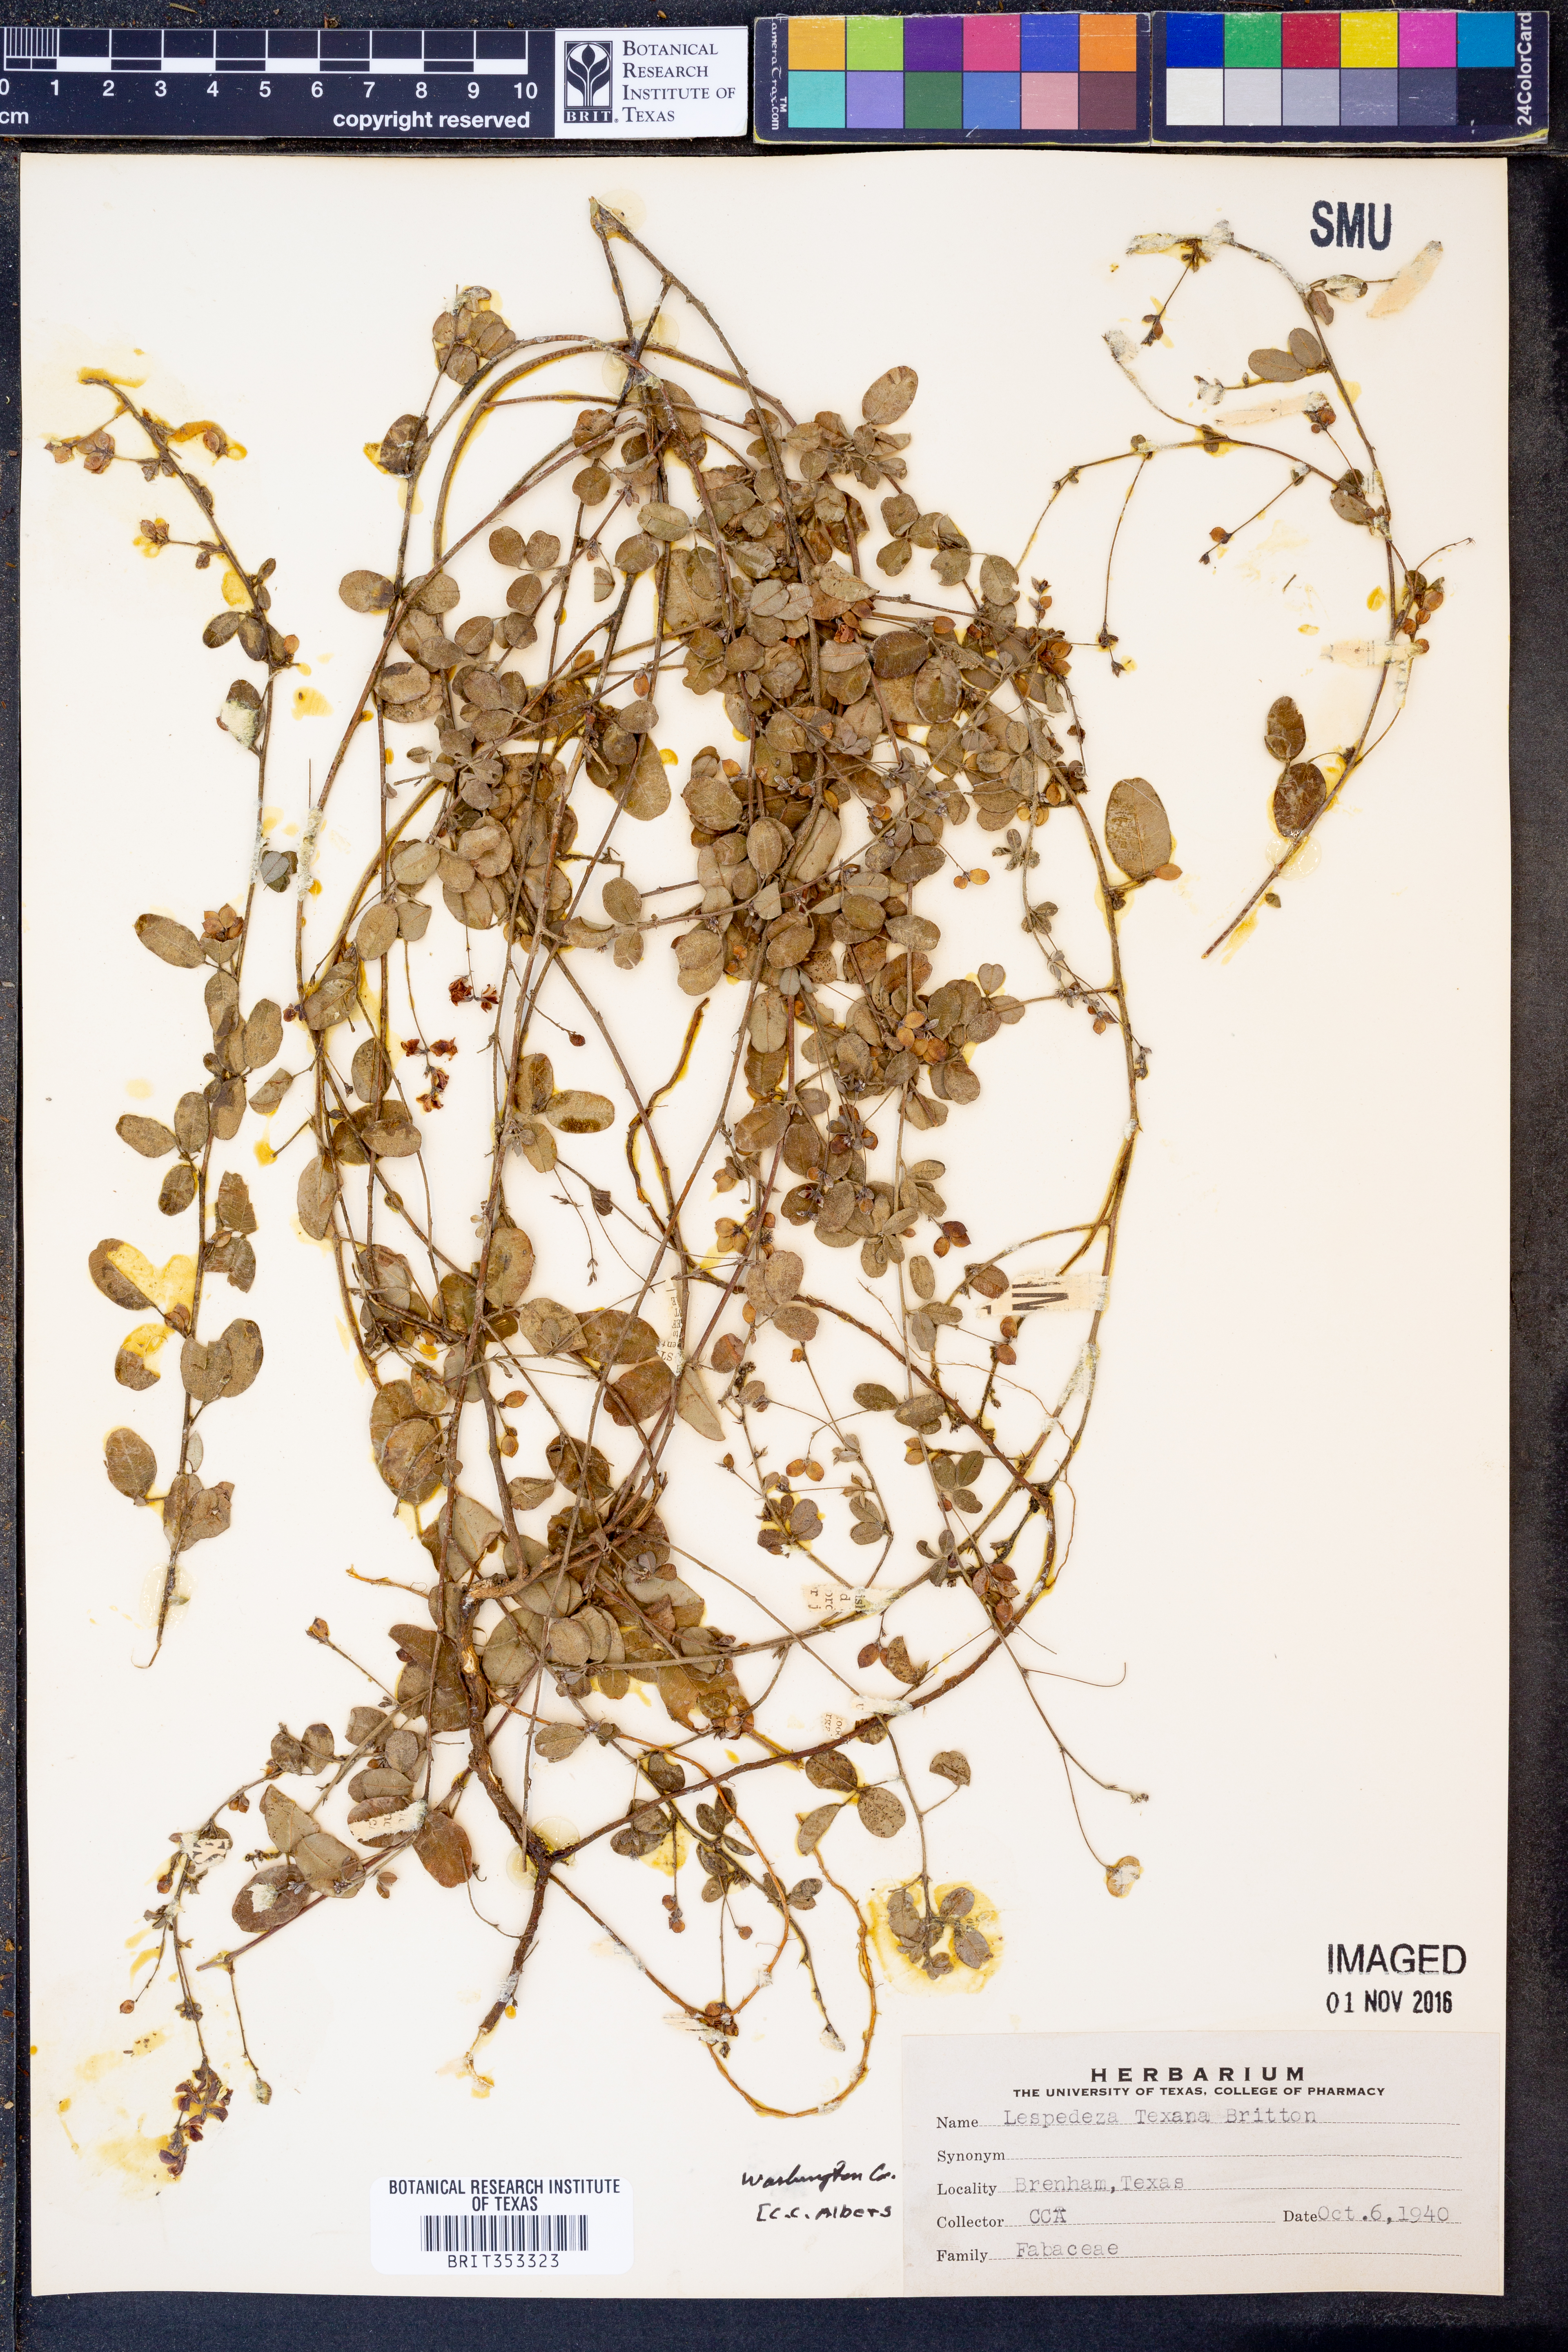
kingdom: Plantae
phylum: Tracheophyta
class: Magnoliopsida
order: Fabales
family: Fabaceae
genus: Lespedeza
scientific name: Lespedeza texana
